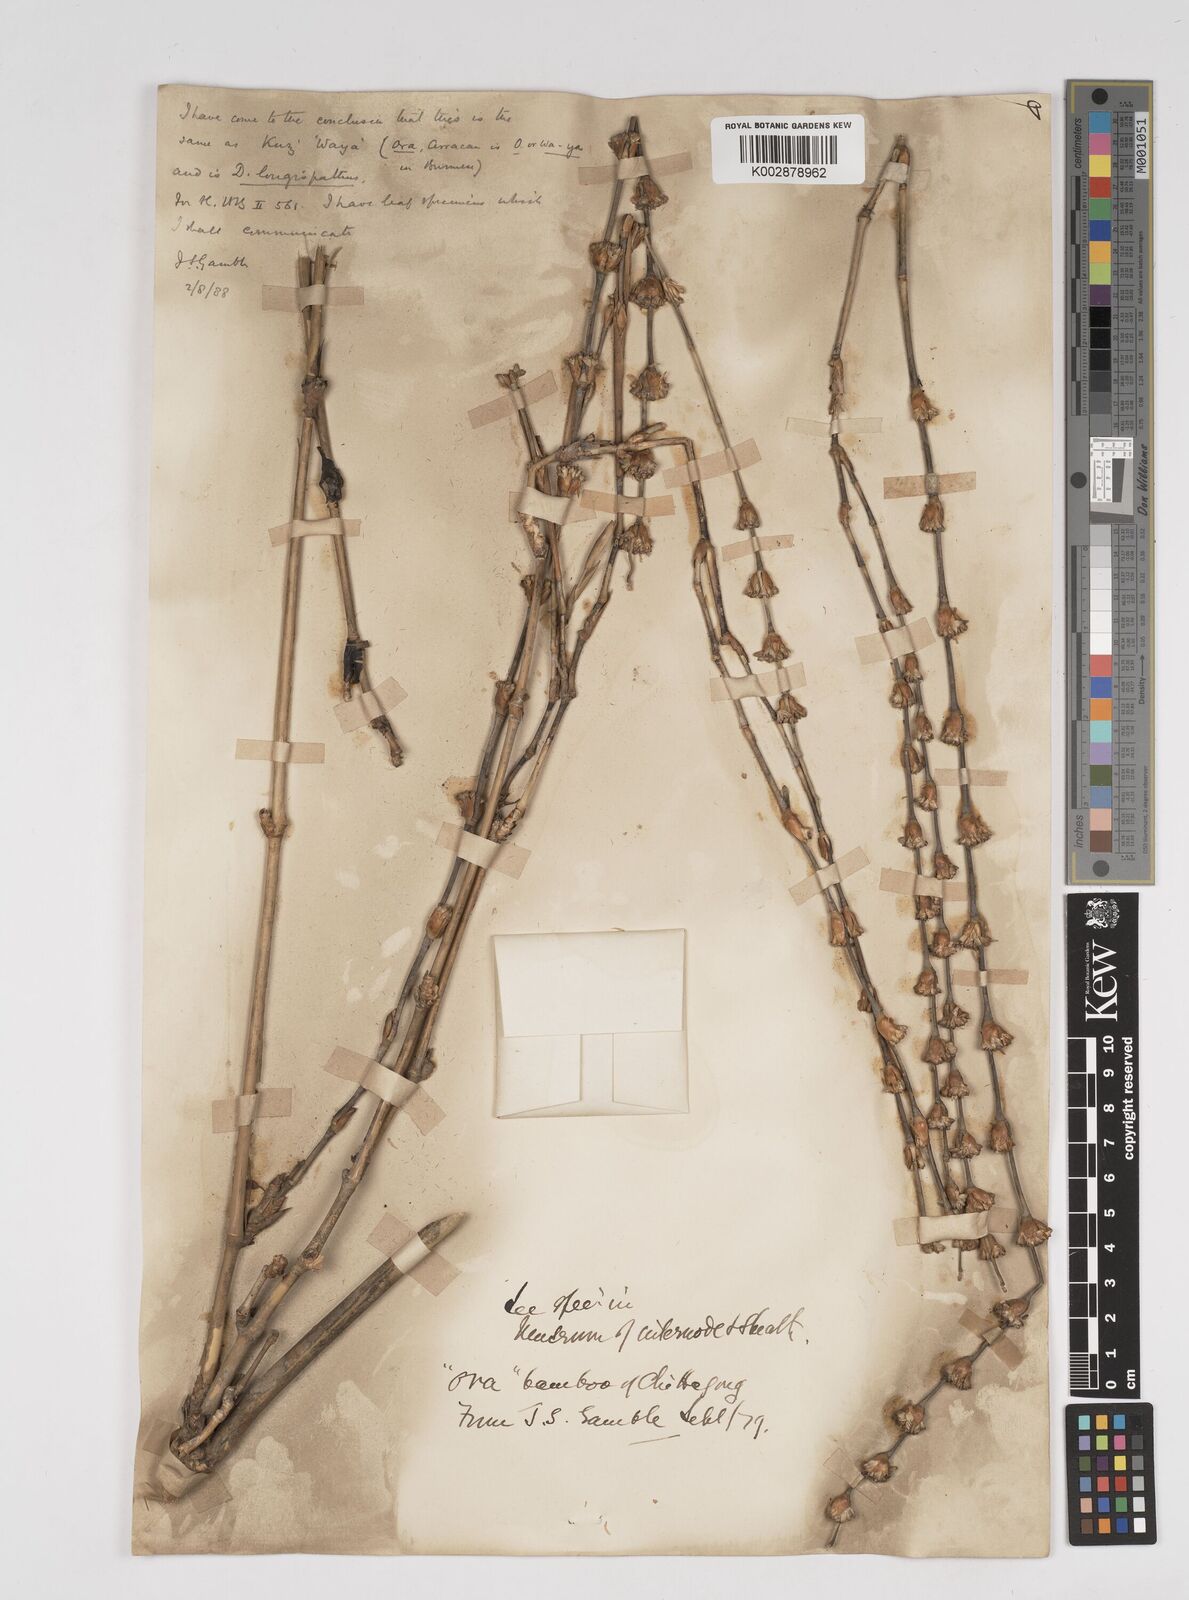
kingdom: Plantae
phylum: Tracheophyta
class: Liliopsida
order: Poales
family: Poaceae
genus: Dendrocalamus
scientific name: Dendrocalamus longispathus
